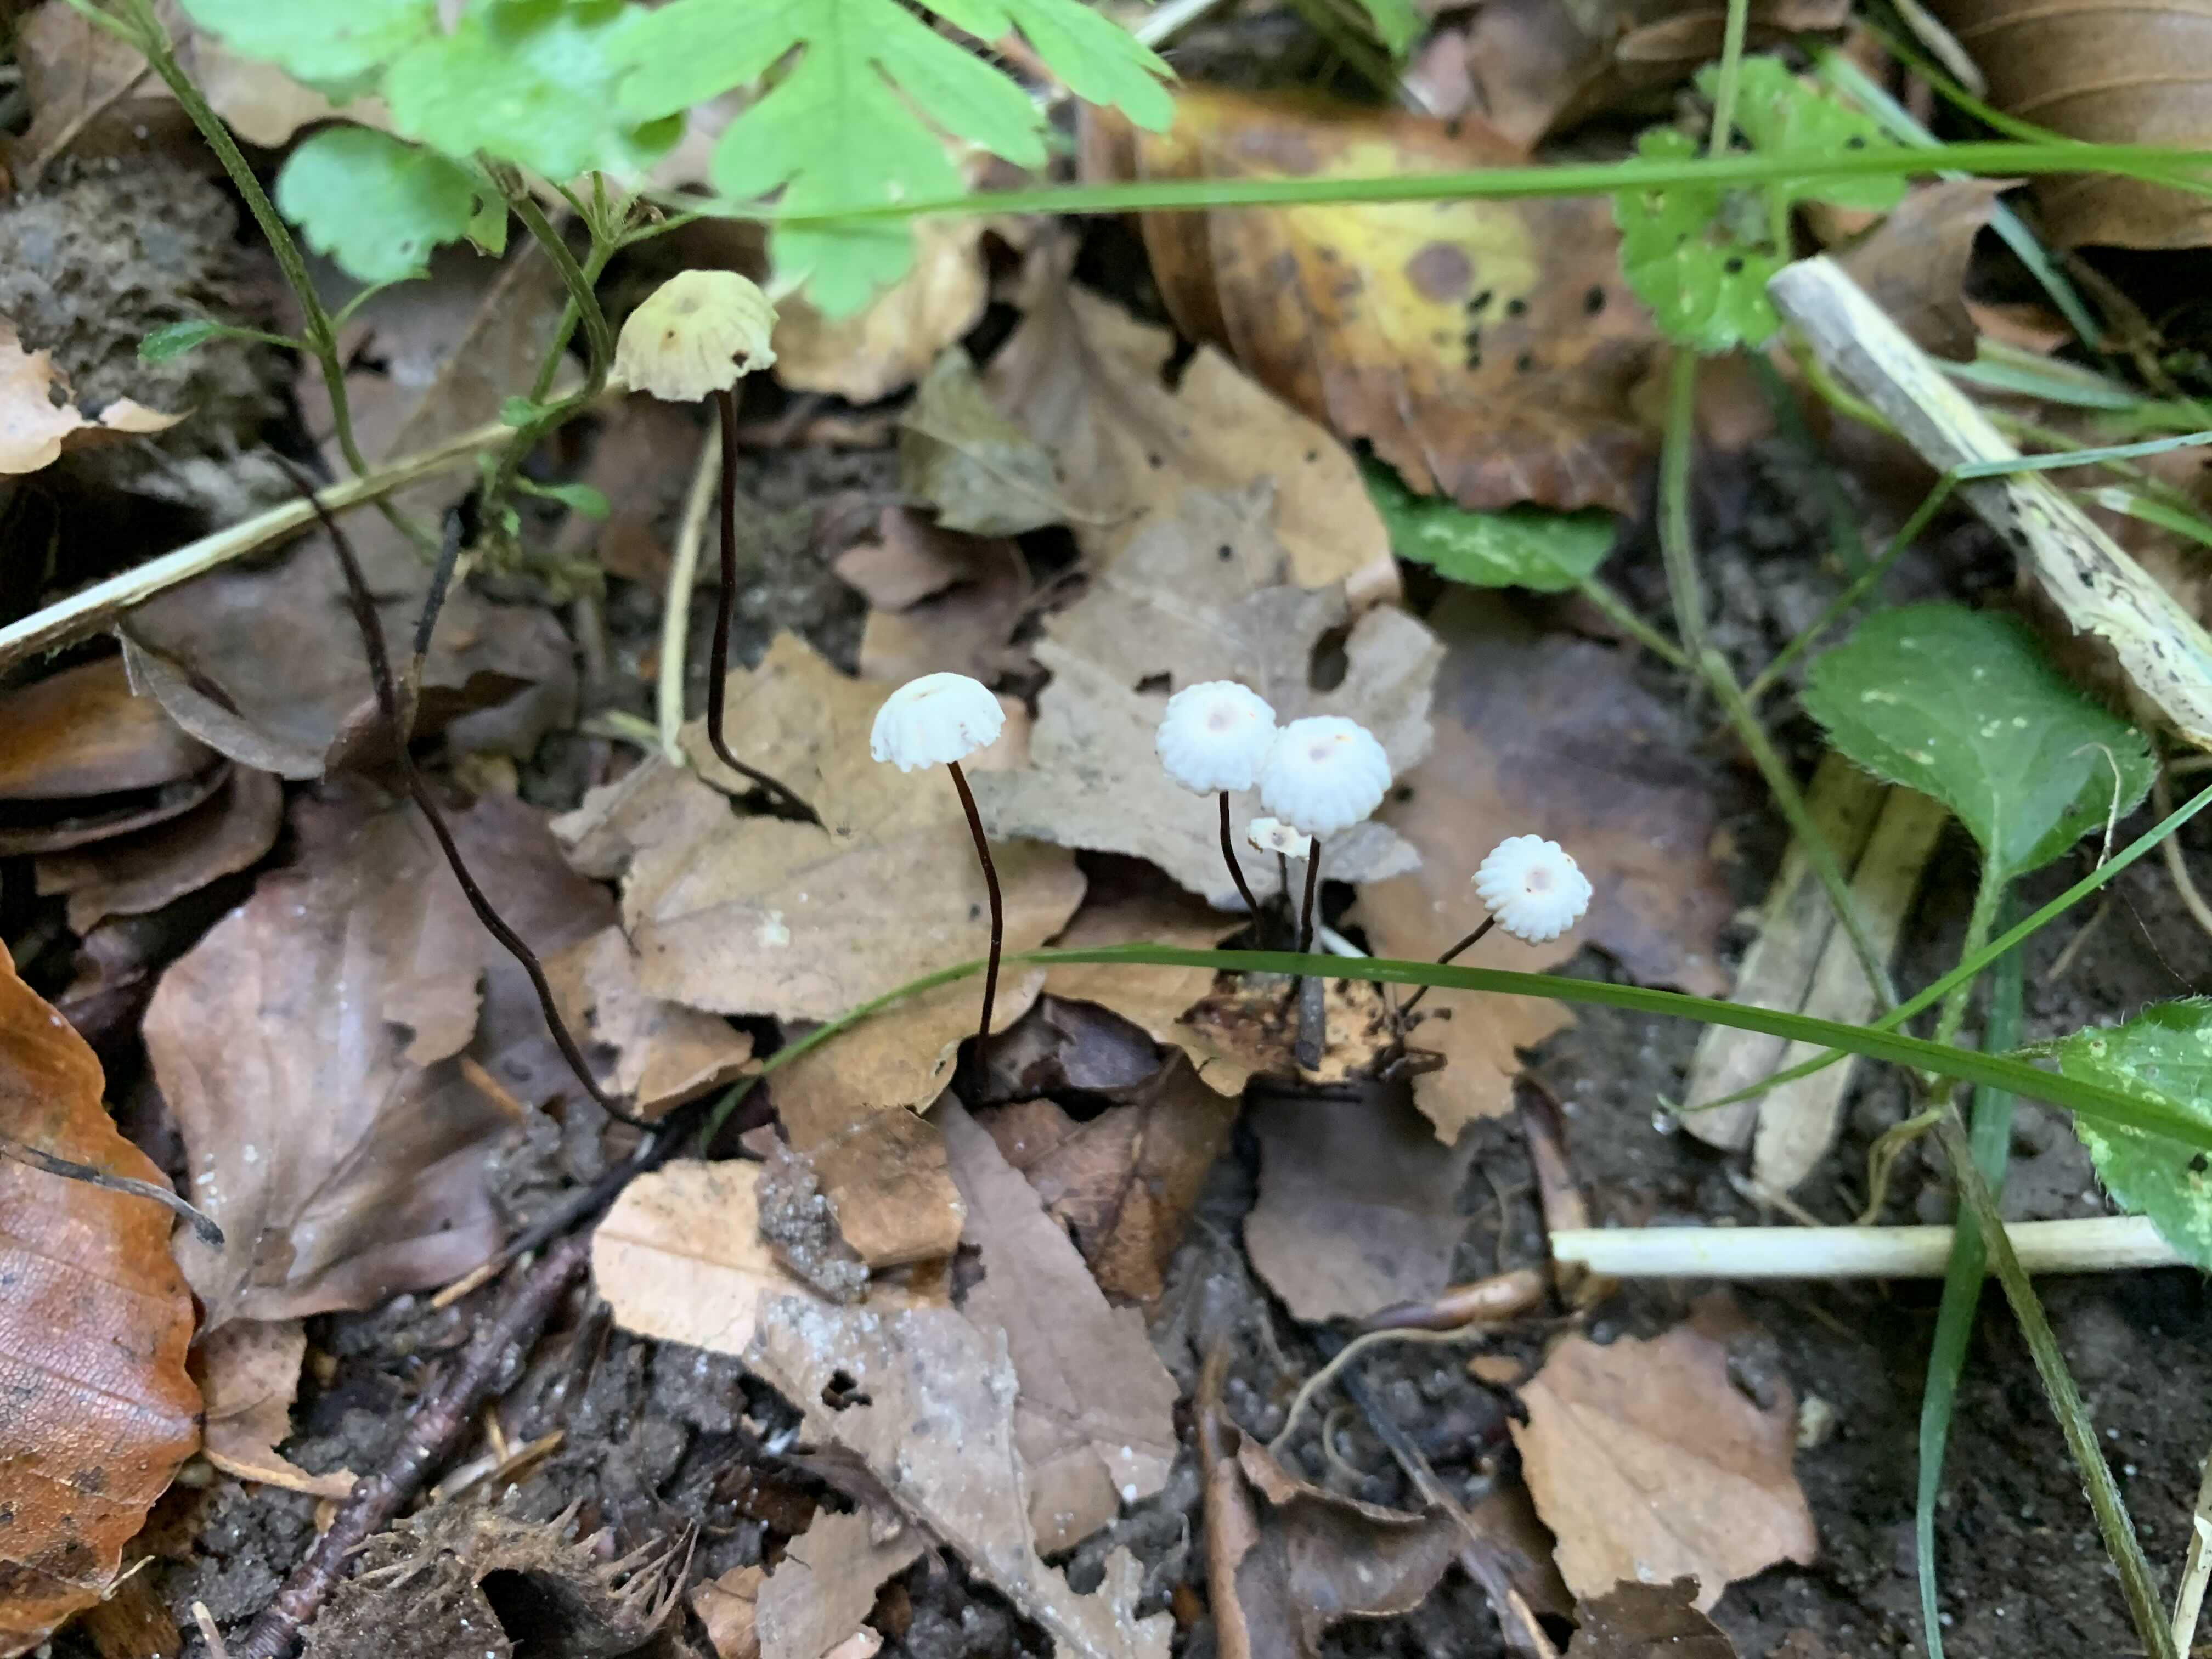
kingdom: Fungi
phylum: Basidiomycota
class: Agaricomycetes
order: Agaricales
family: Marasmiaceae
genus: Marasmius
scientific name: Marasmius rotula
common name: hjul-bruskhat
